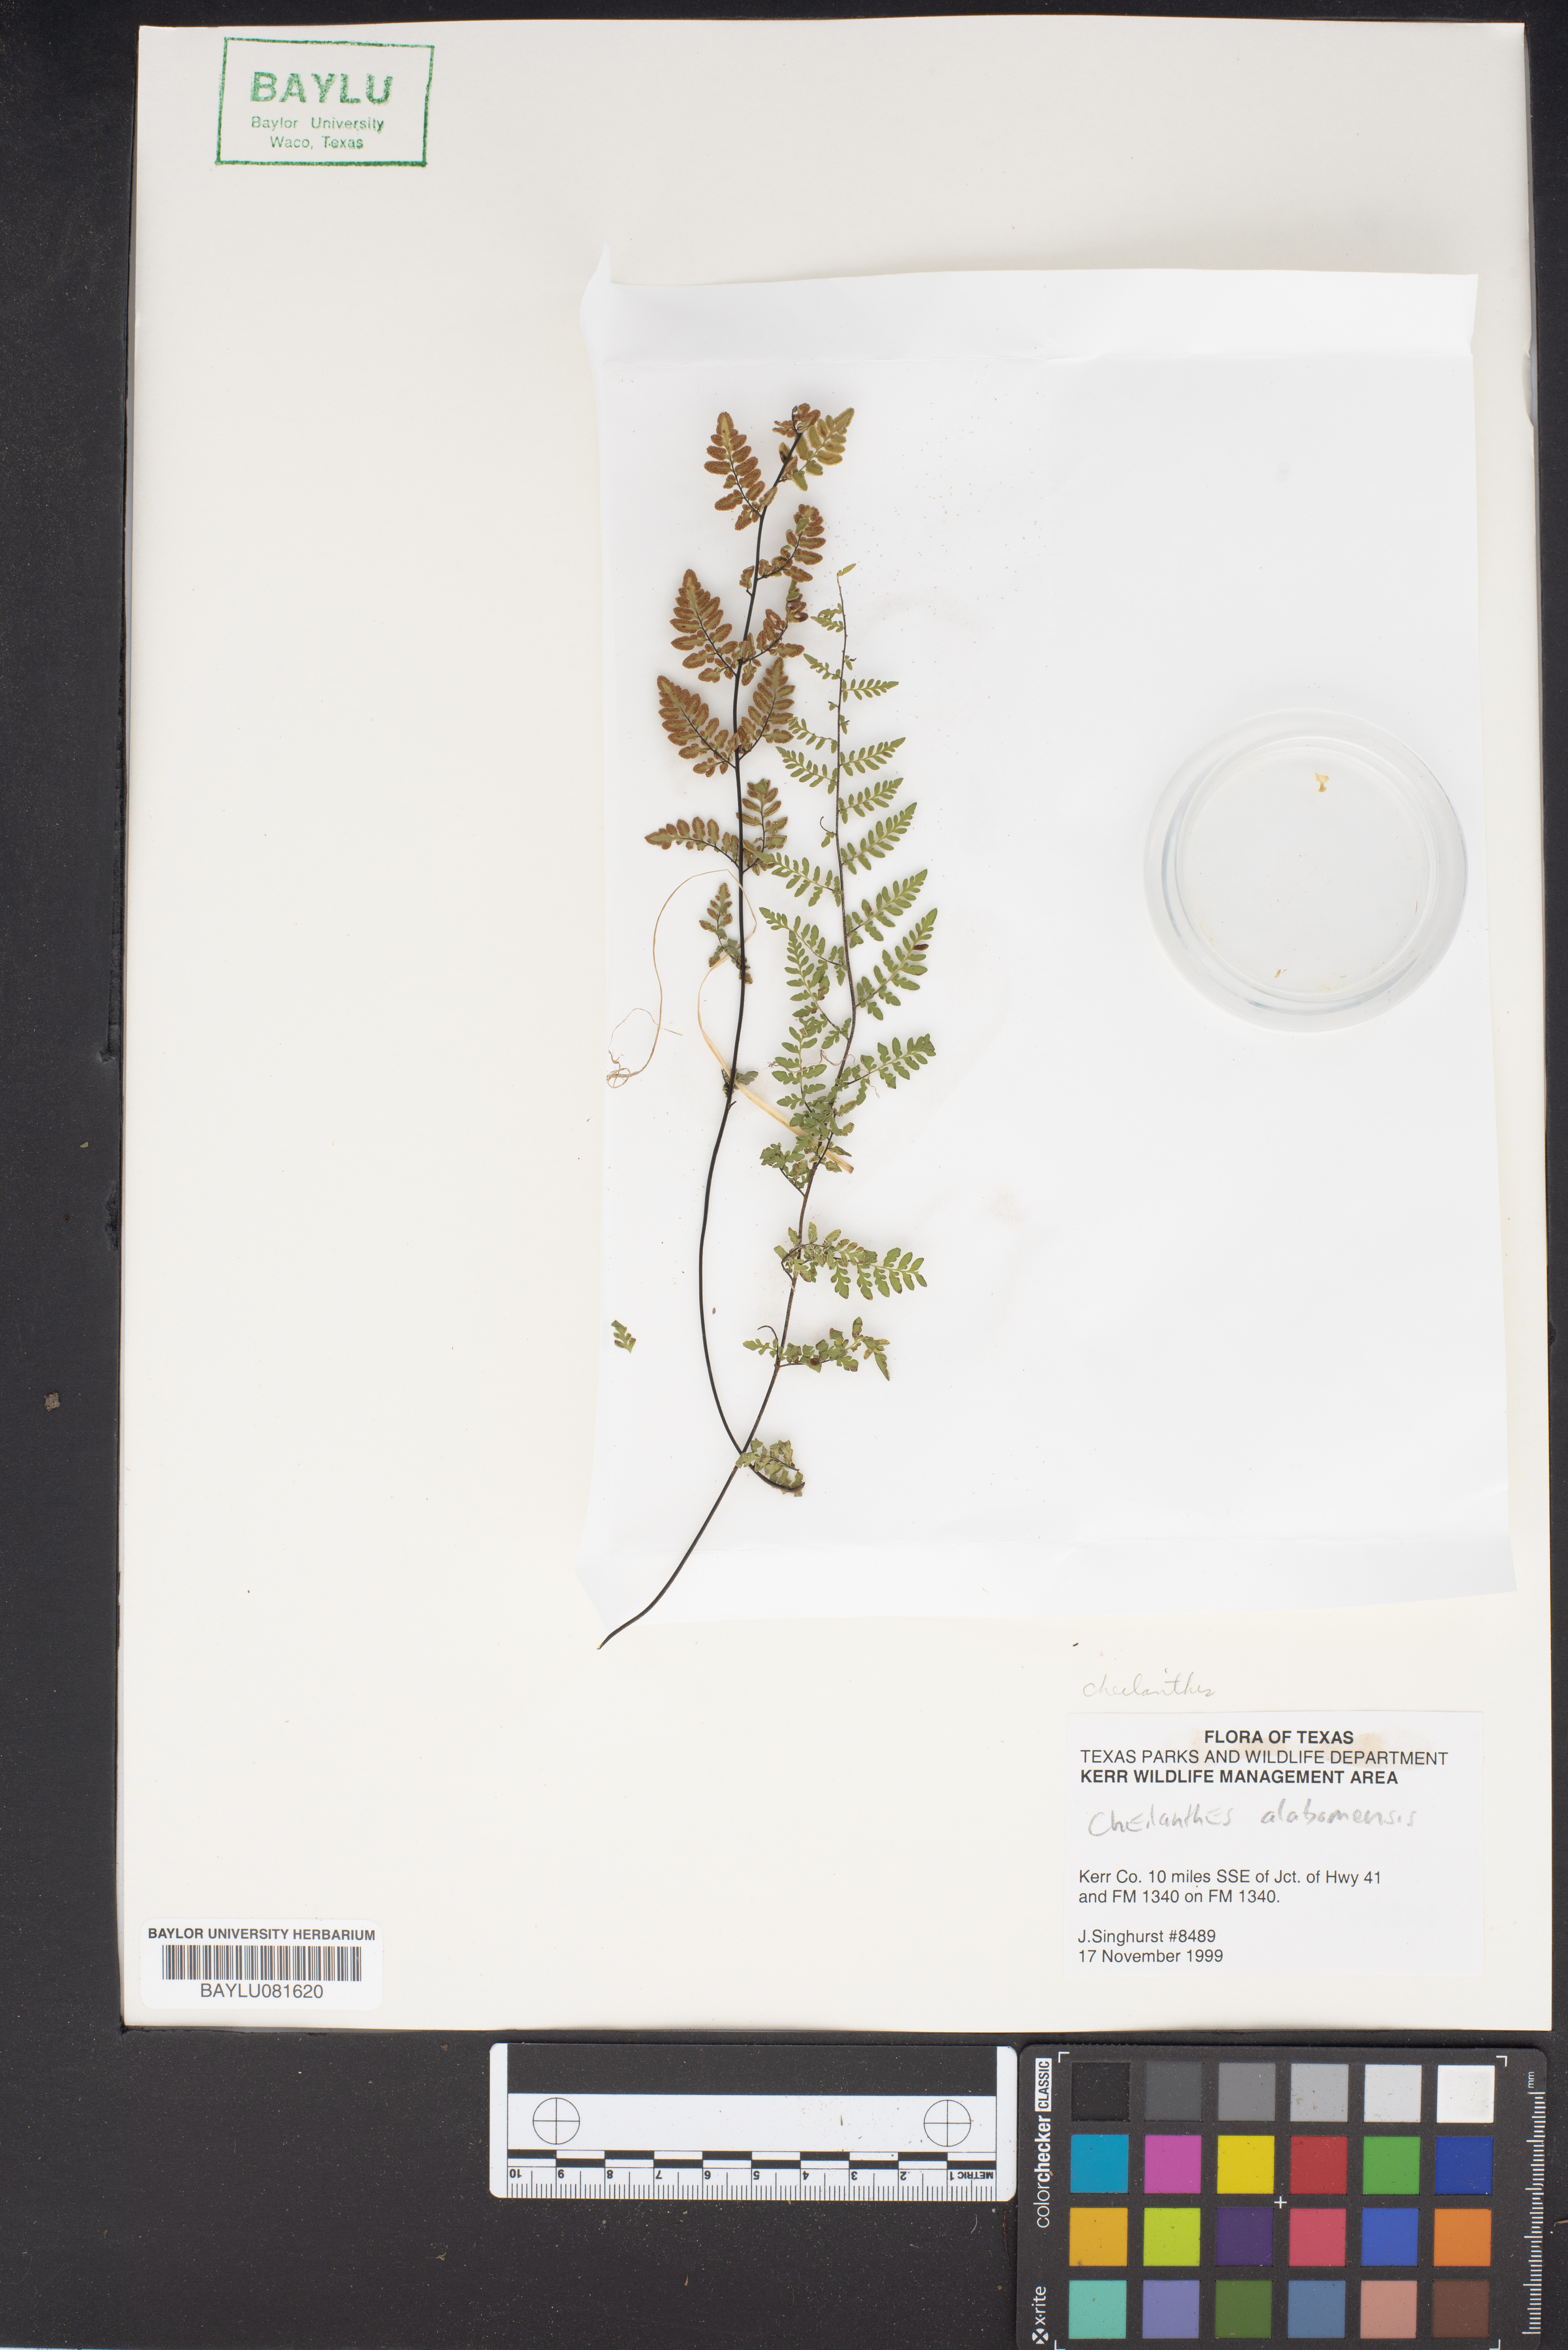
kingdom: Plantae
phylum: Tracheophyta
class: Polypodiopsida
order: Polypodiales
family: Pteridaceae
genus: Myriopteris
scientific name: Myriopteris alabamensis
